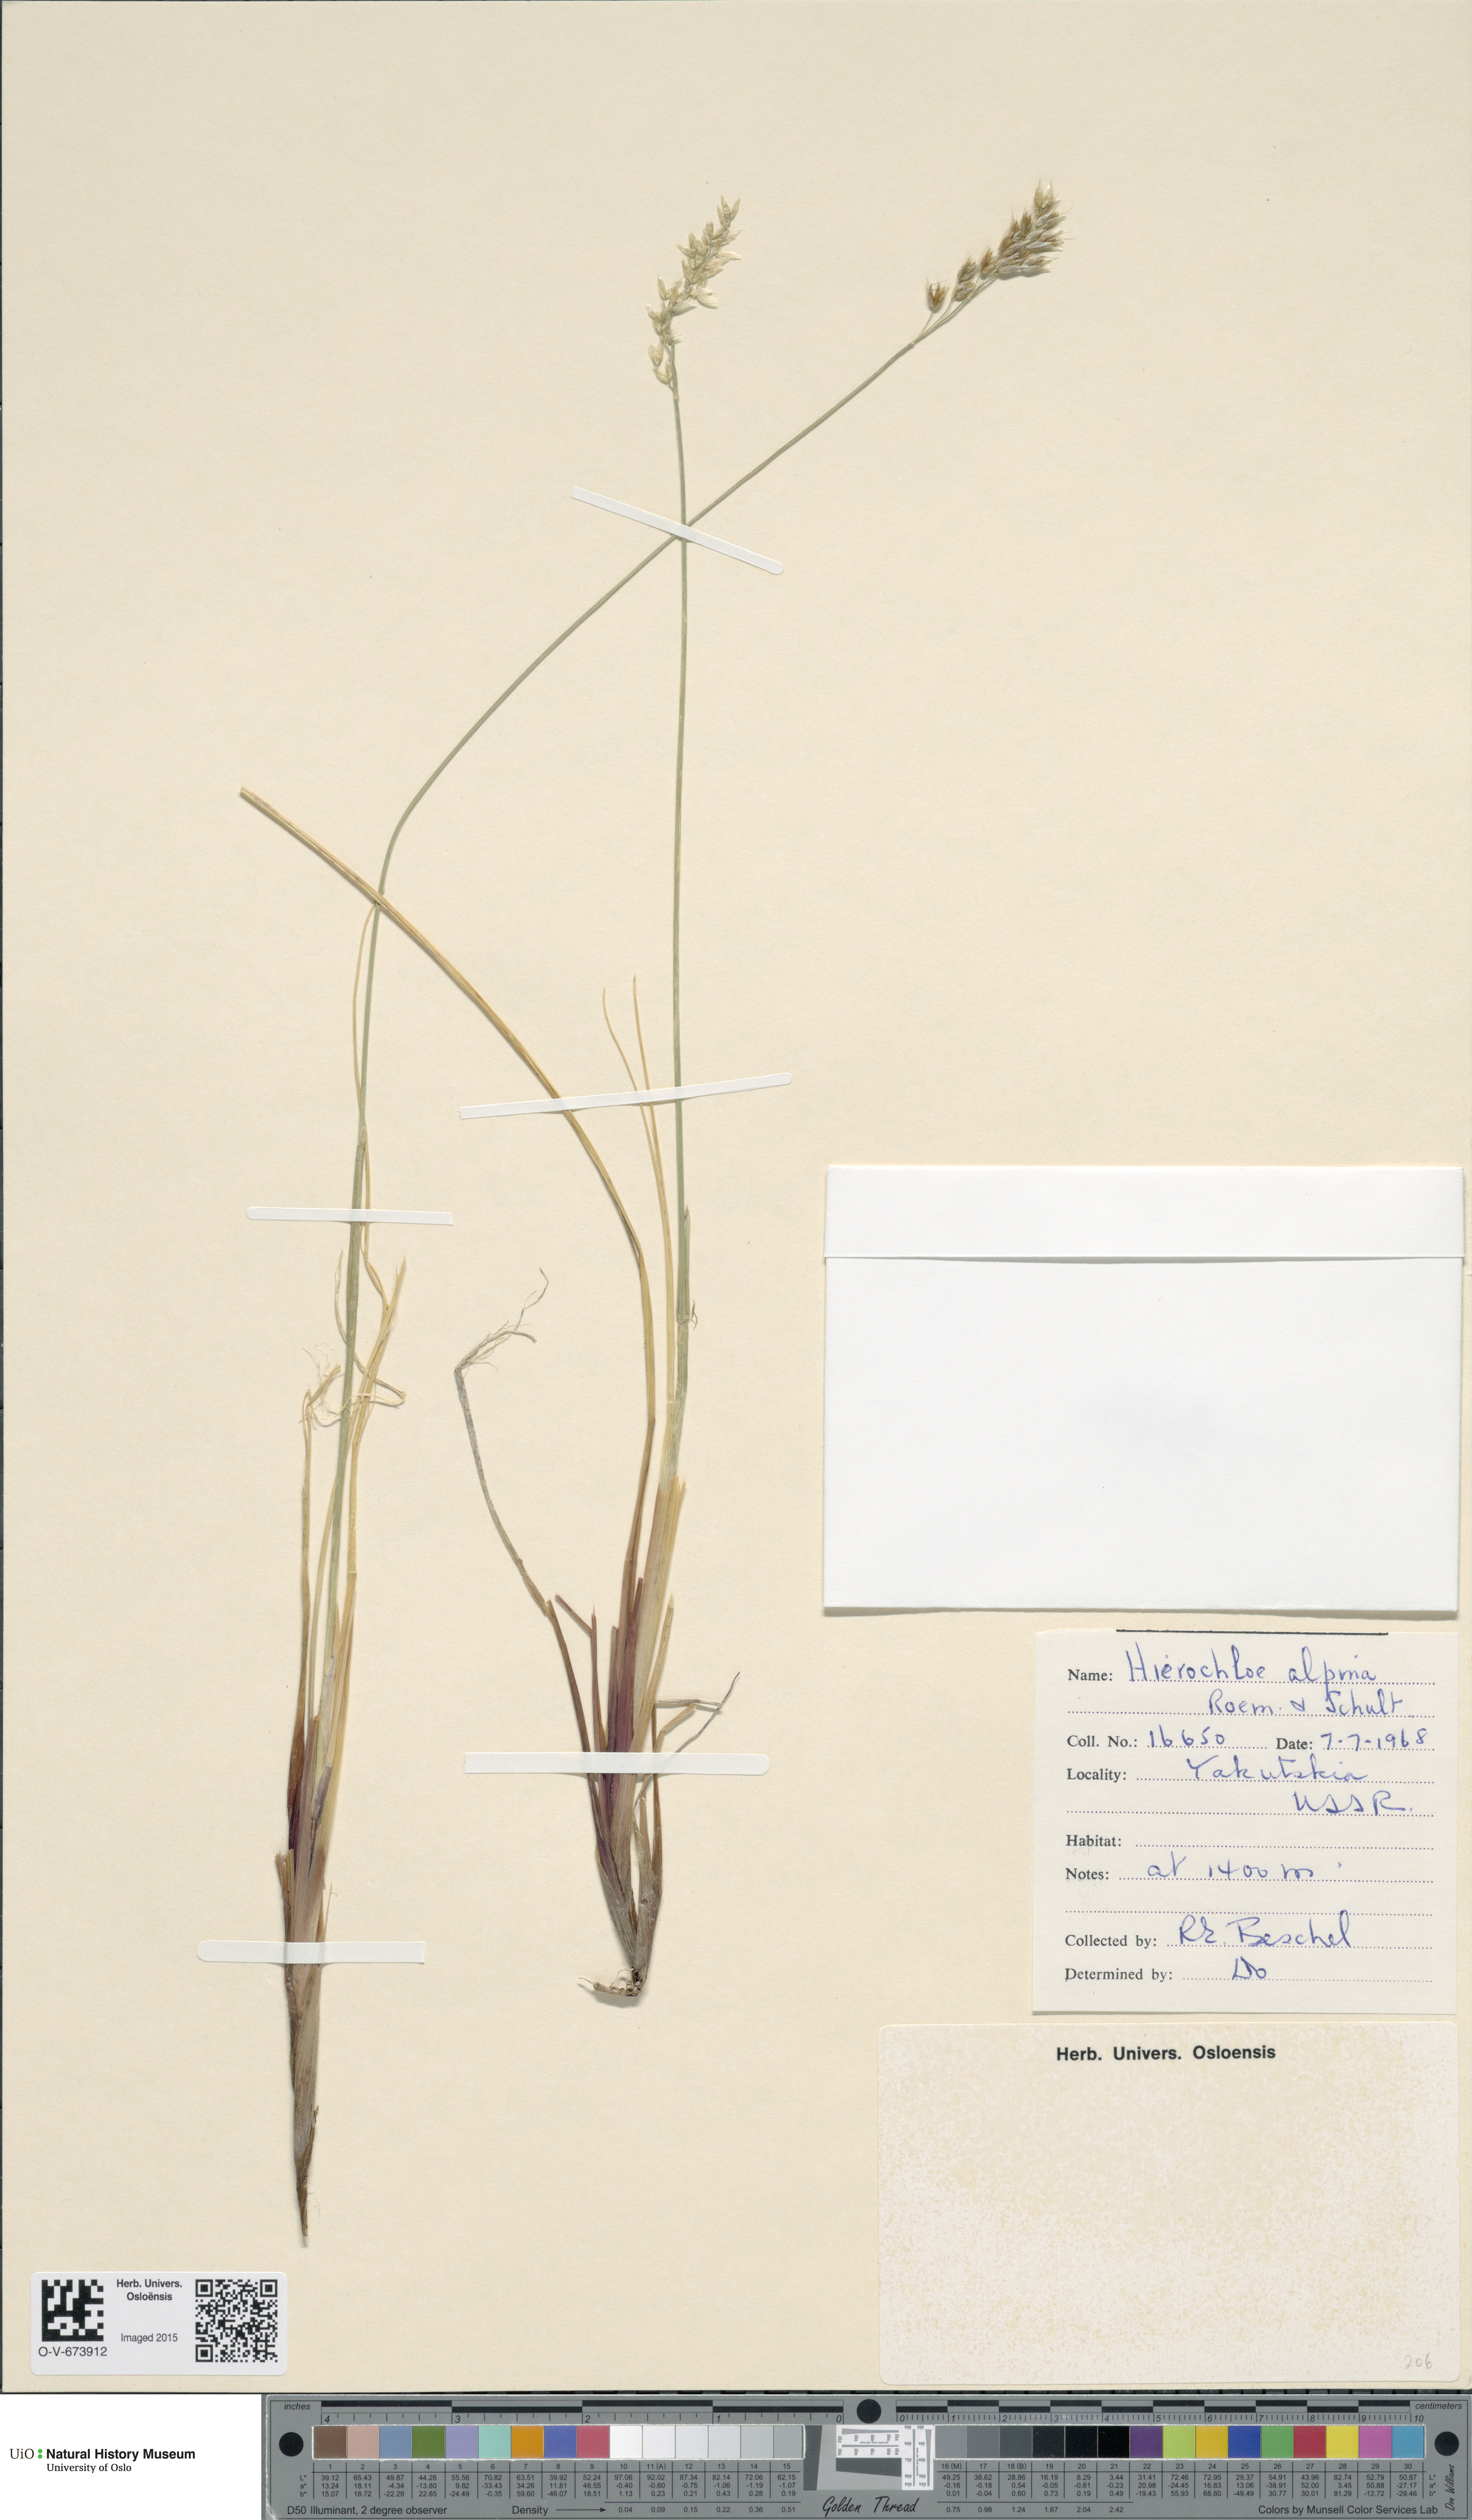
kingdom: Plantae
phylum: Tracheophyta
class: Liliopsida
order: Poales
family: Poaceae
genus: Anthoxanthum
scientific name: Anthoxanthum monticola
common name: Alpine sweetgrass
